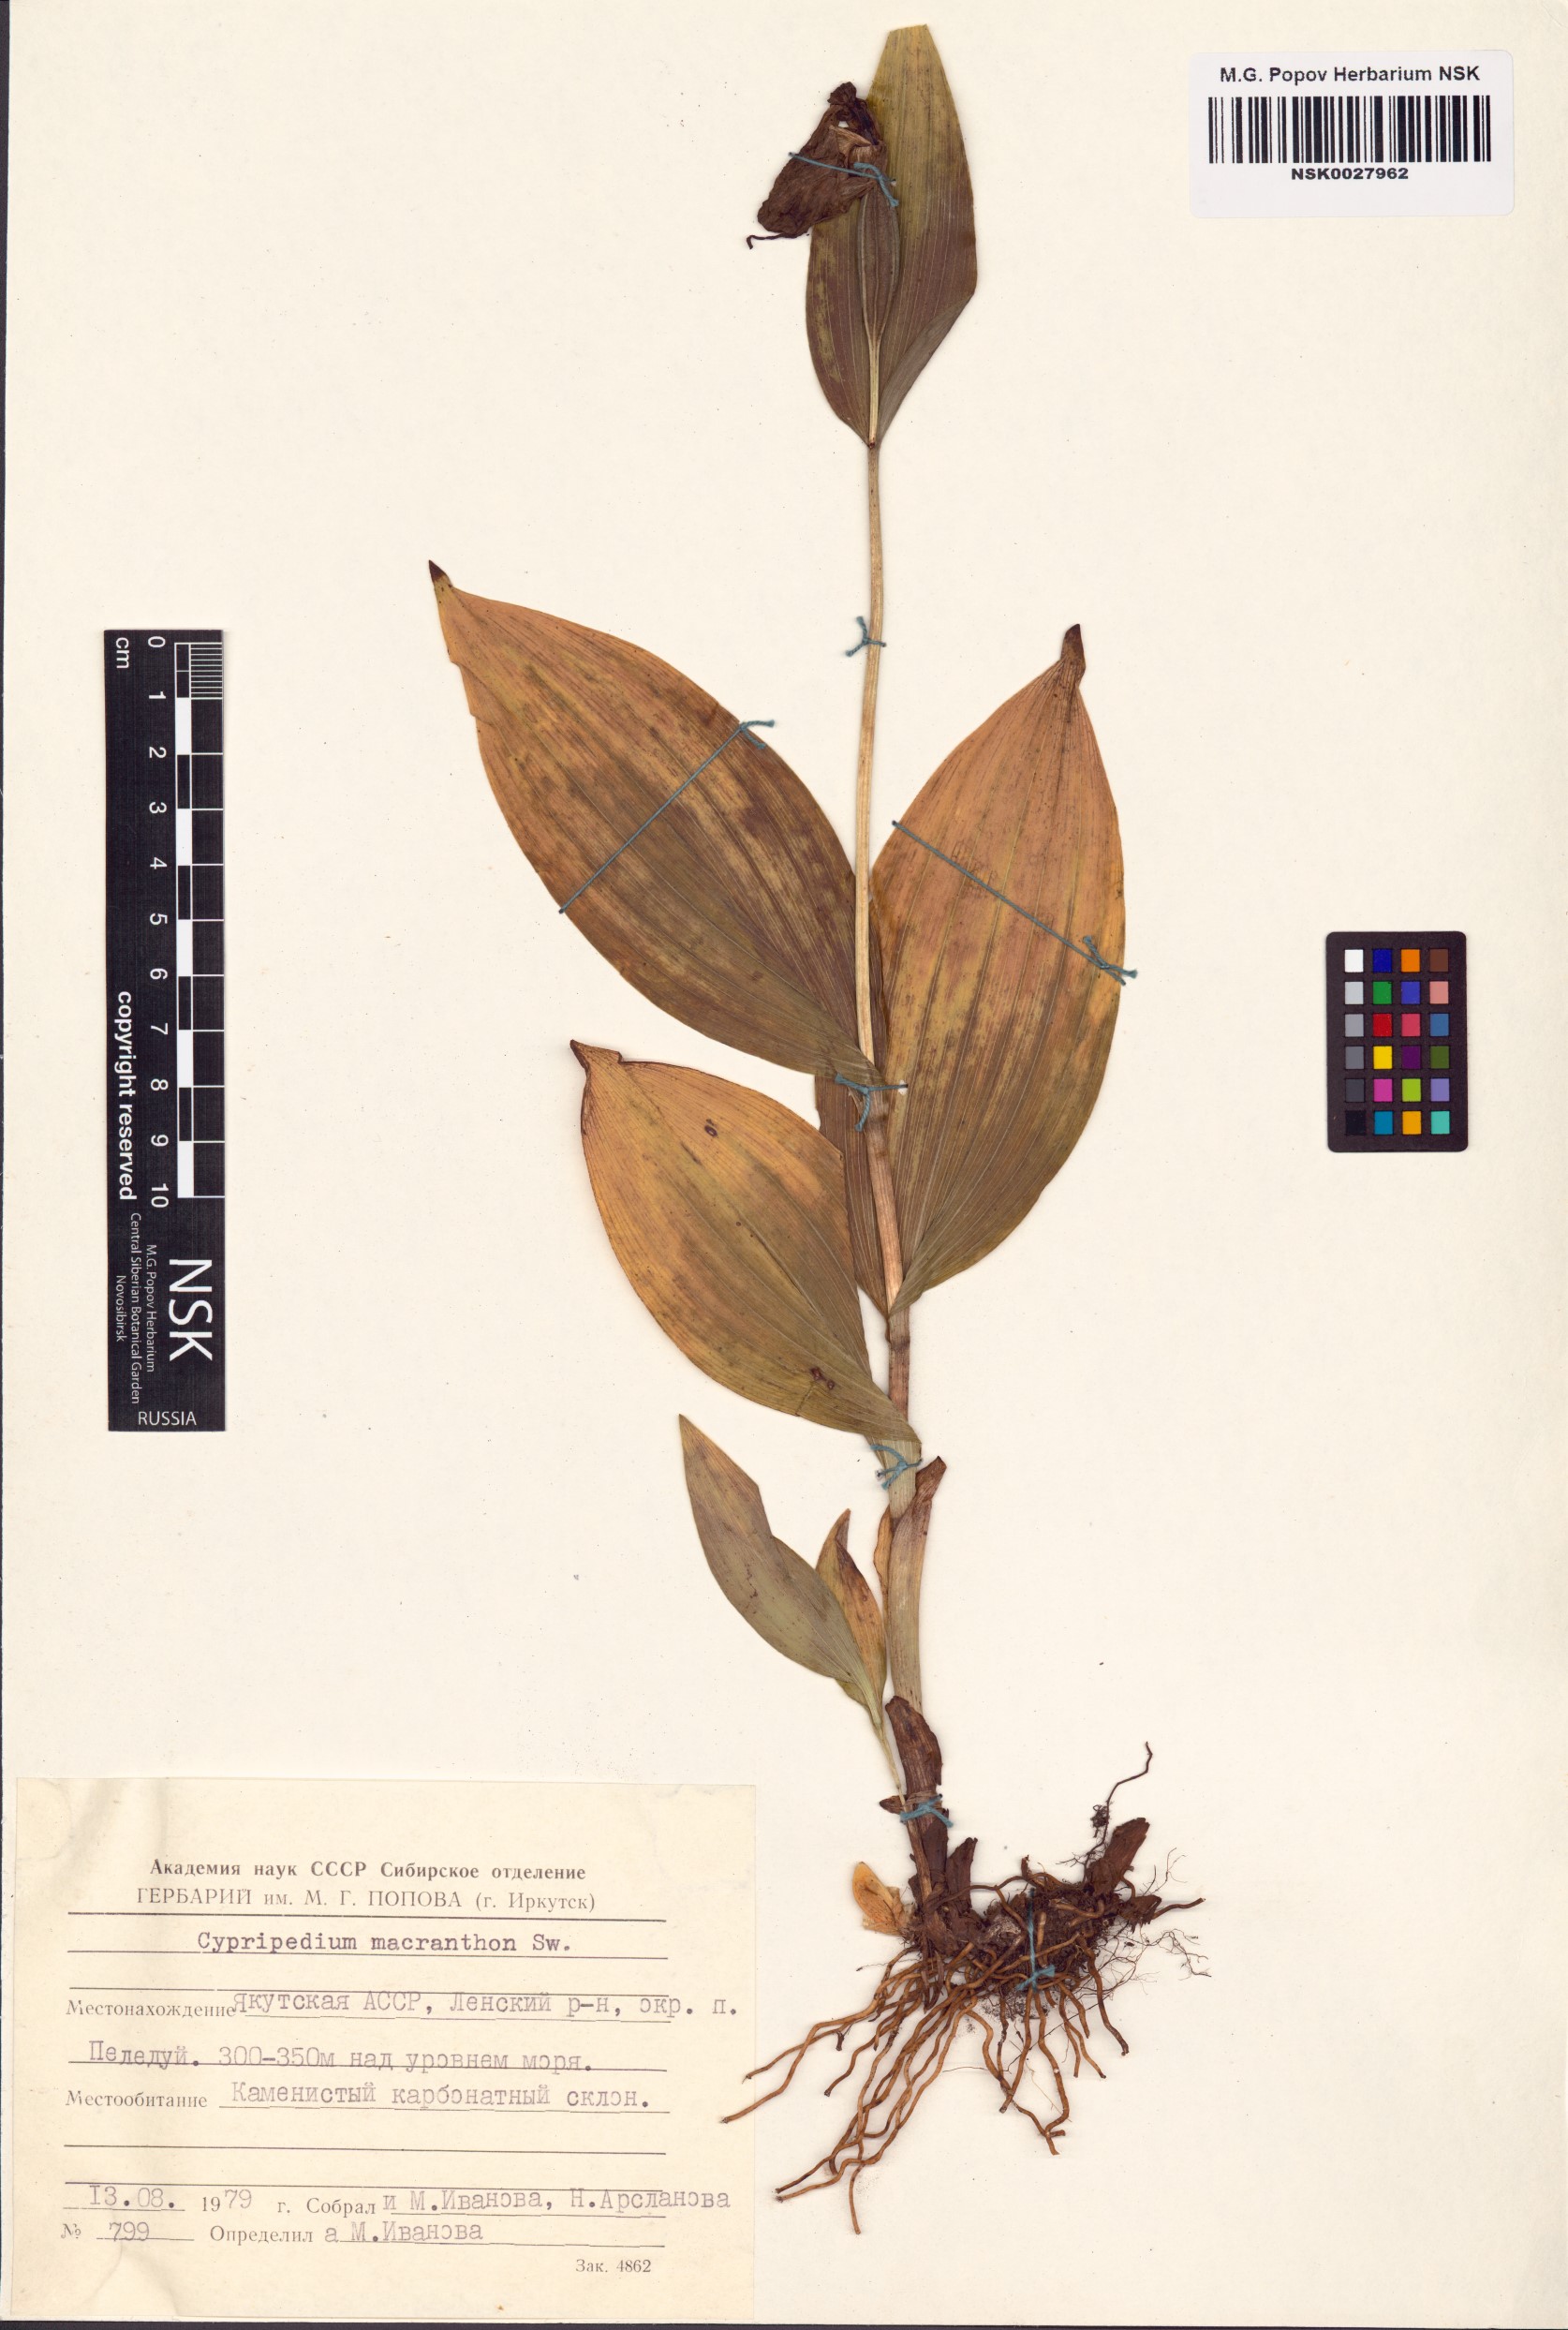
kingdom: Plantae
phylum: Tracheophyta
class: Liliopsida
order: Asparagales
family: Orchidaceae
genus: Cypripedium
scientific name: Cypripedium macranthos
